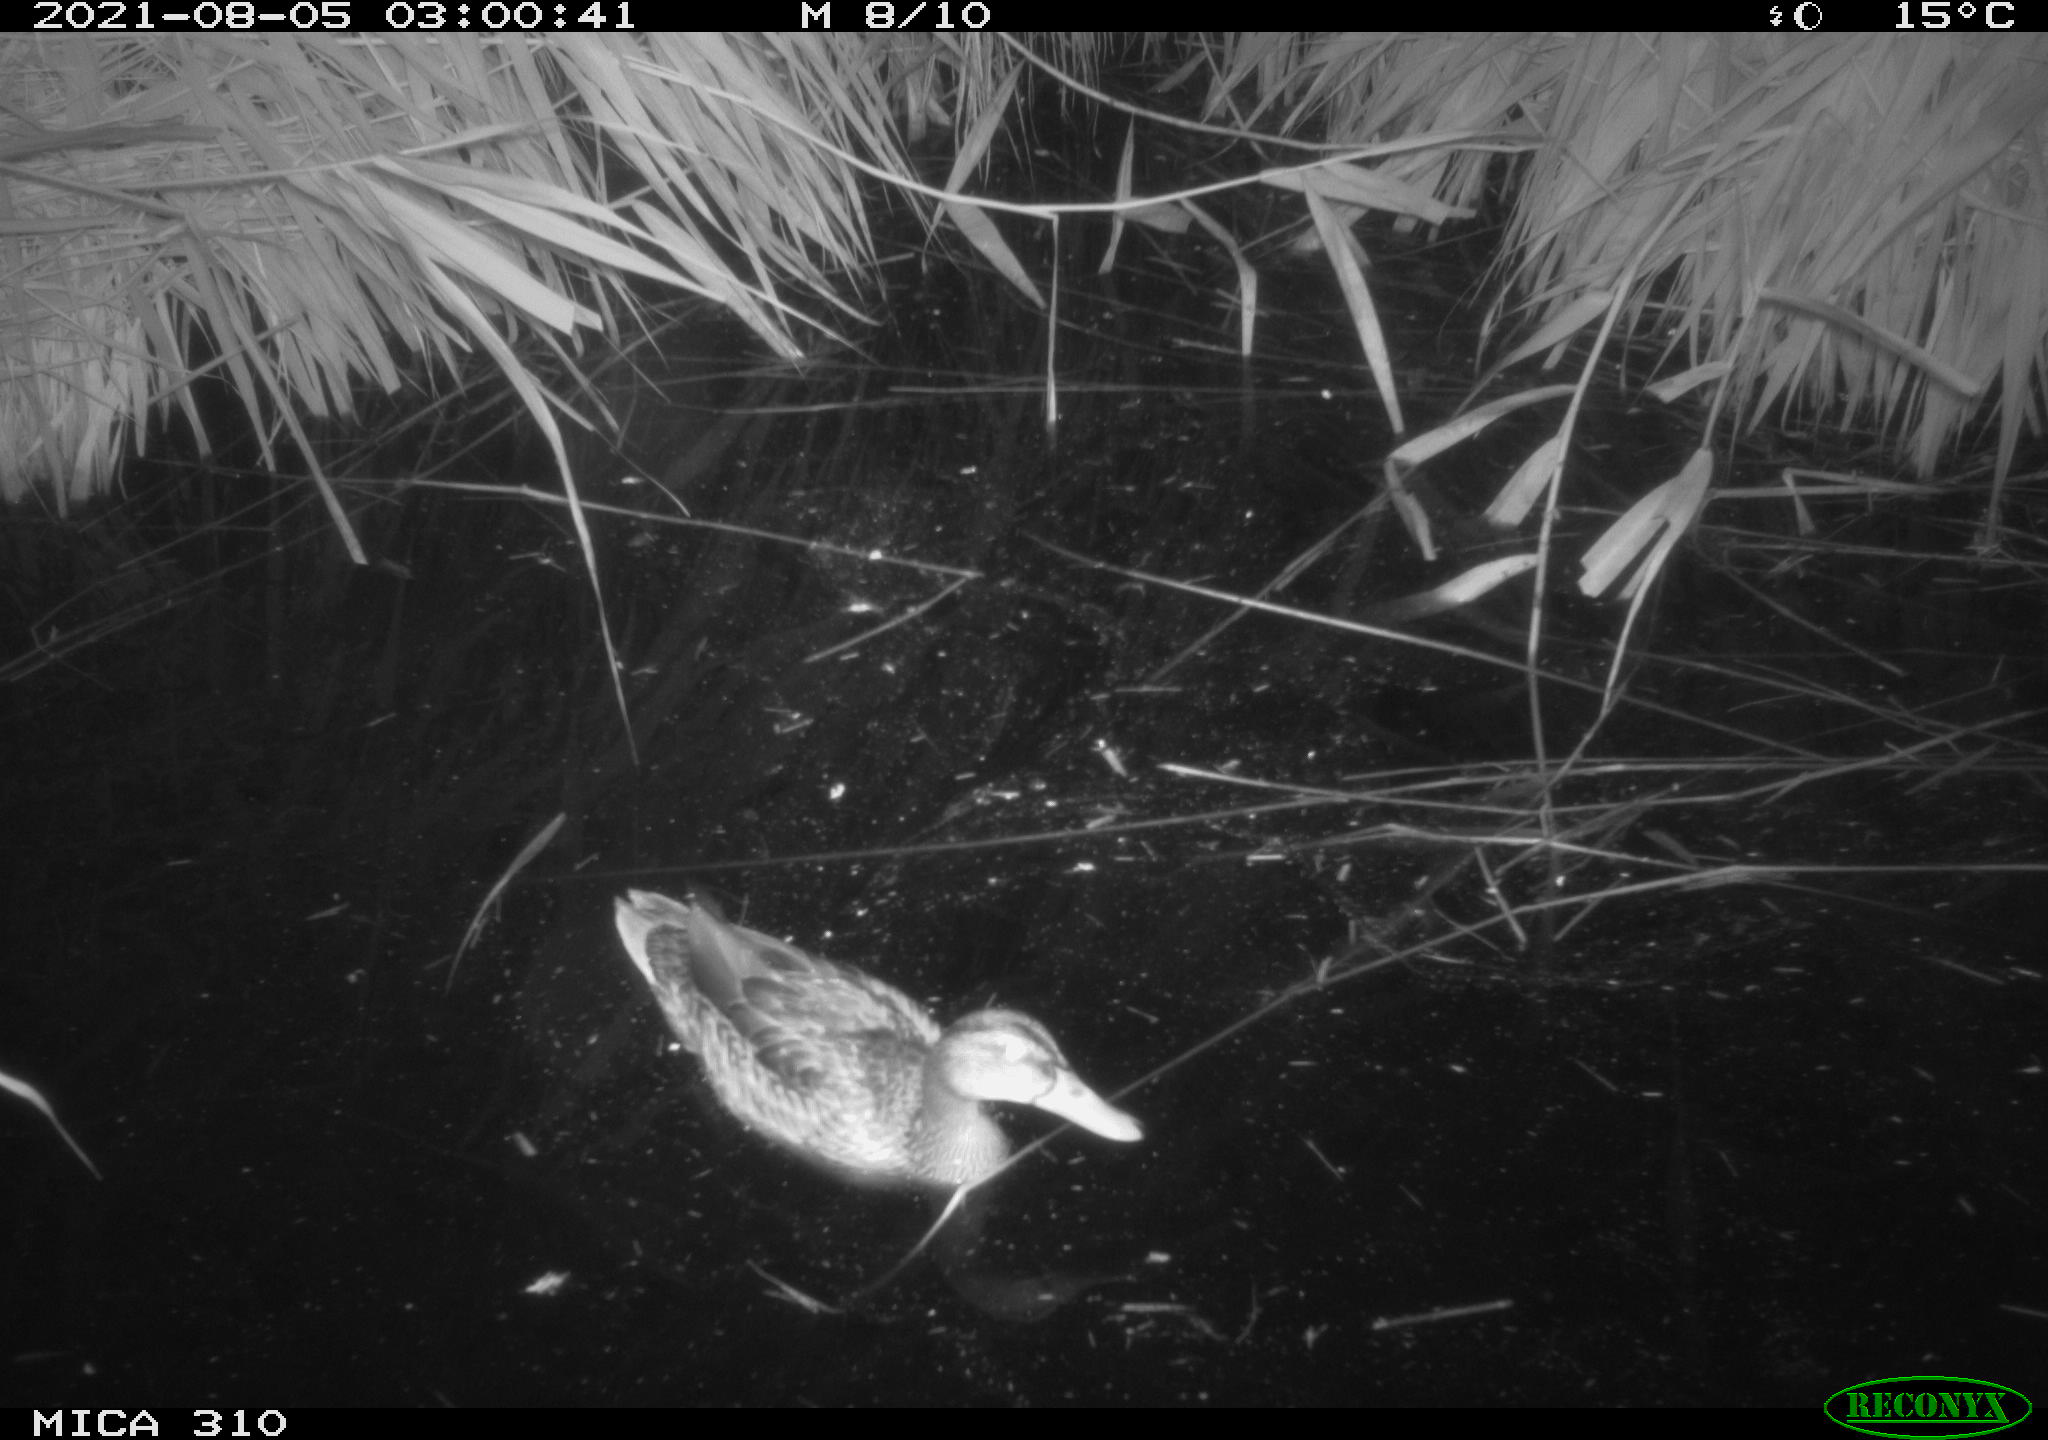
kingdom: Animalia
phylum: Chordata
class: Aves
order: Anseriformes
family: Anatidae
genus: Mareca
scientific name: Mareca strepera
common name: Gadwall
